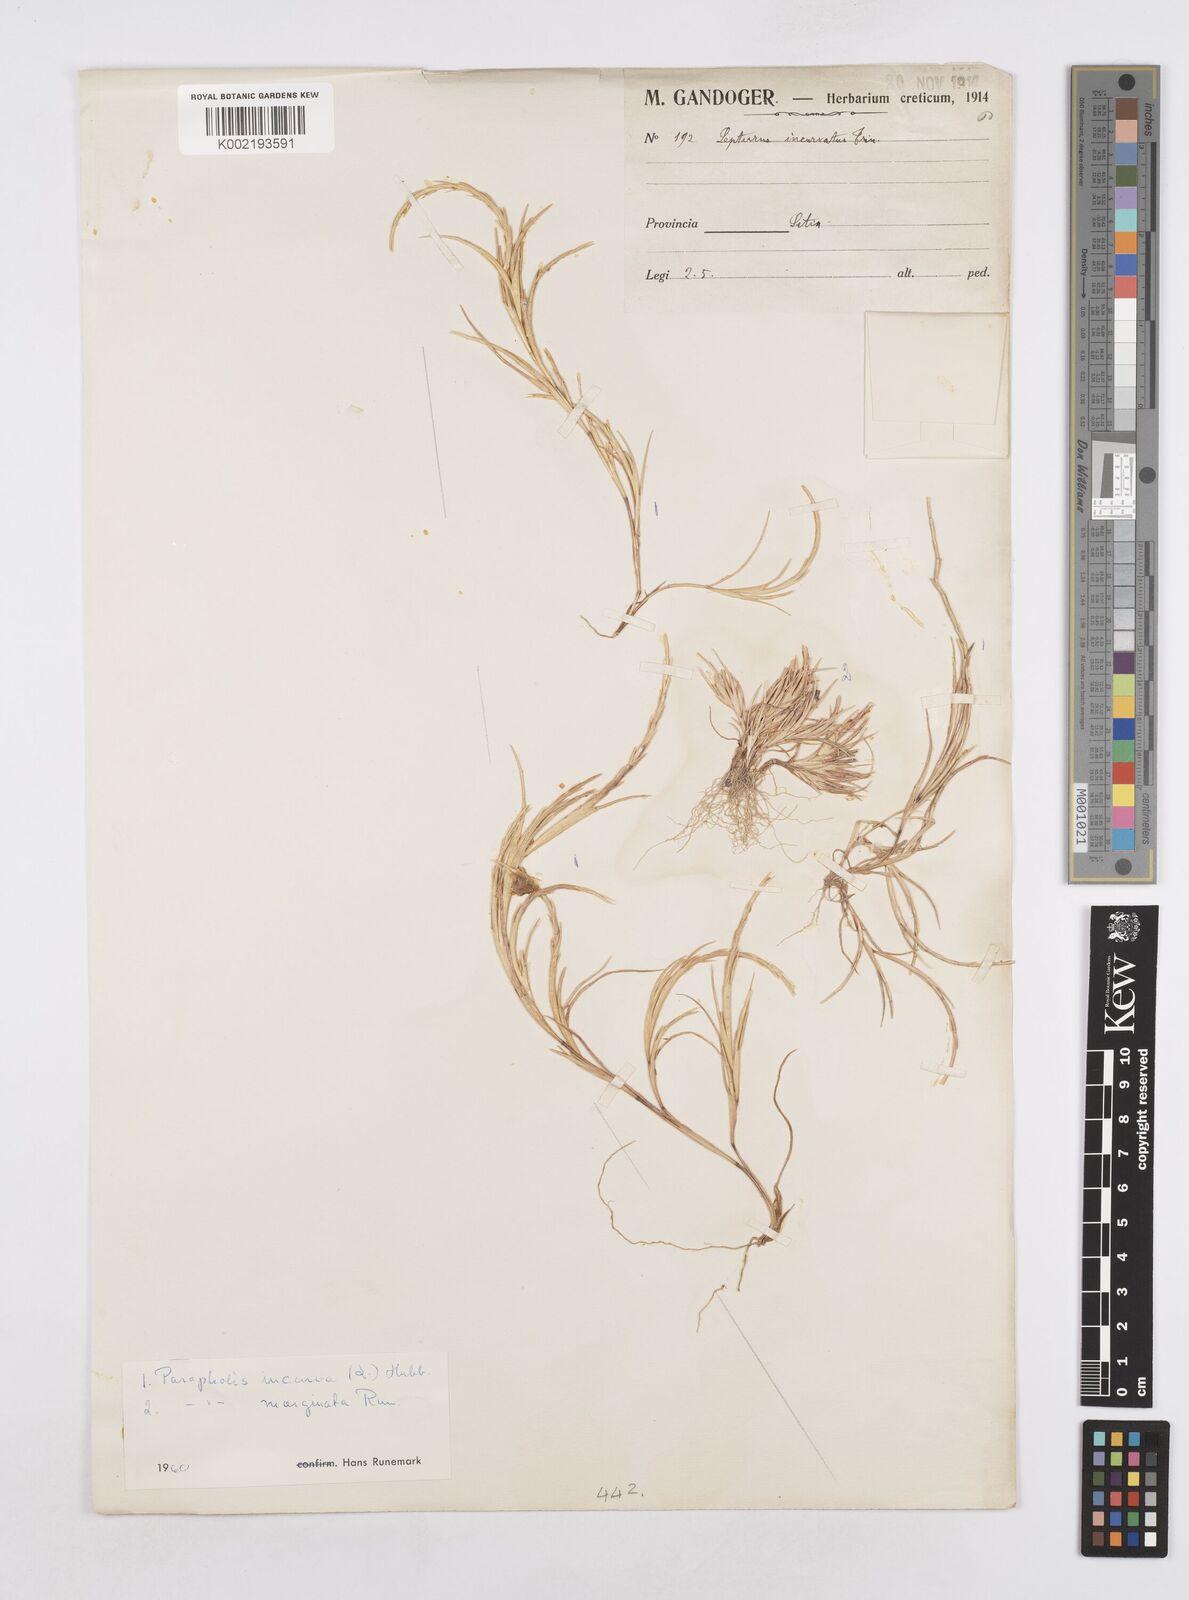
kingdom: Plantae
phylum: Tracheophyta
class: Liliopsida
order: Poales
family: Poaceae
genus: Parapholis
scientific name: Parapholis marginata
